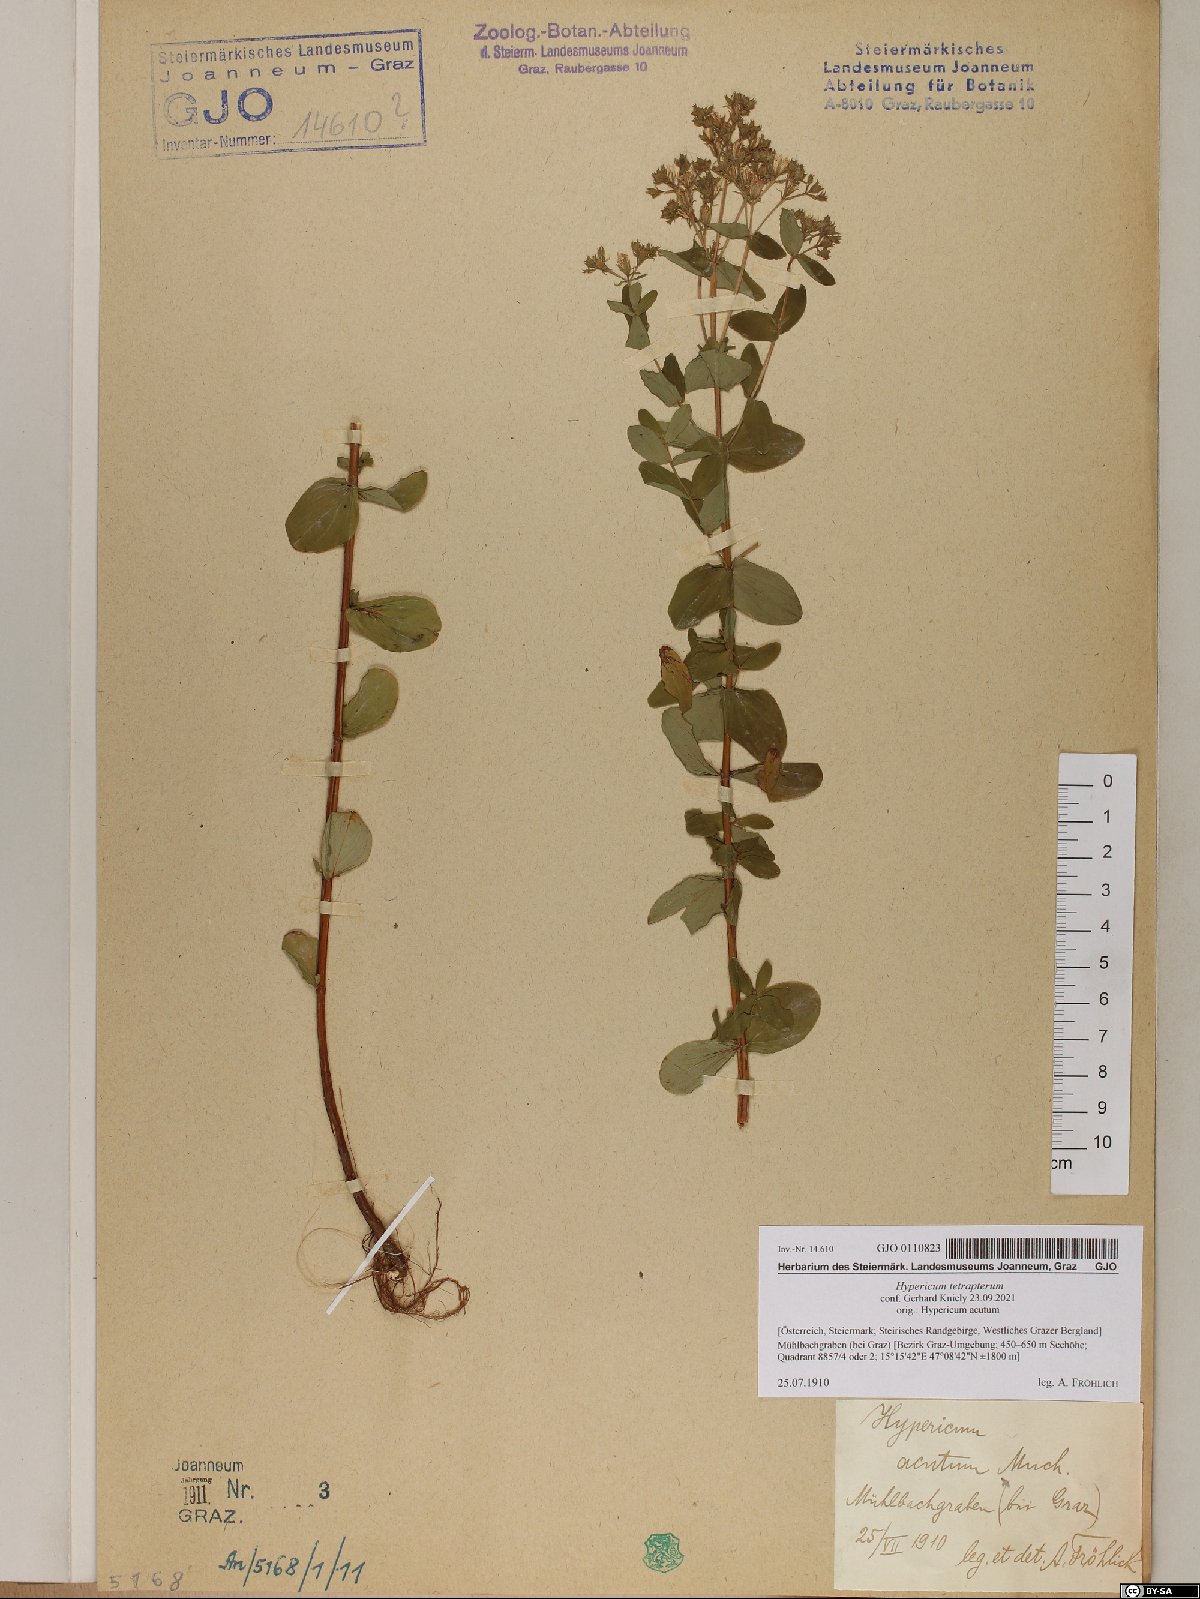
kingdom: Plantae
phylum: Tracheophyta
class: Magnoliopsida
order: Malpighiales
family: Hypericaceae
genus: Hypericum
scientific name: Hypericum tetrapterum
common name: Square-stalked st. john's-wort
